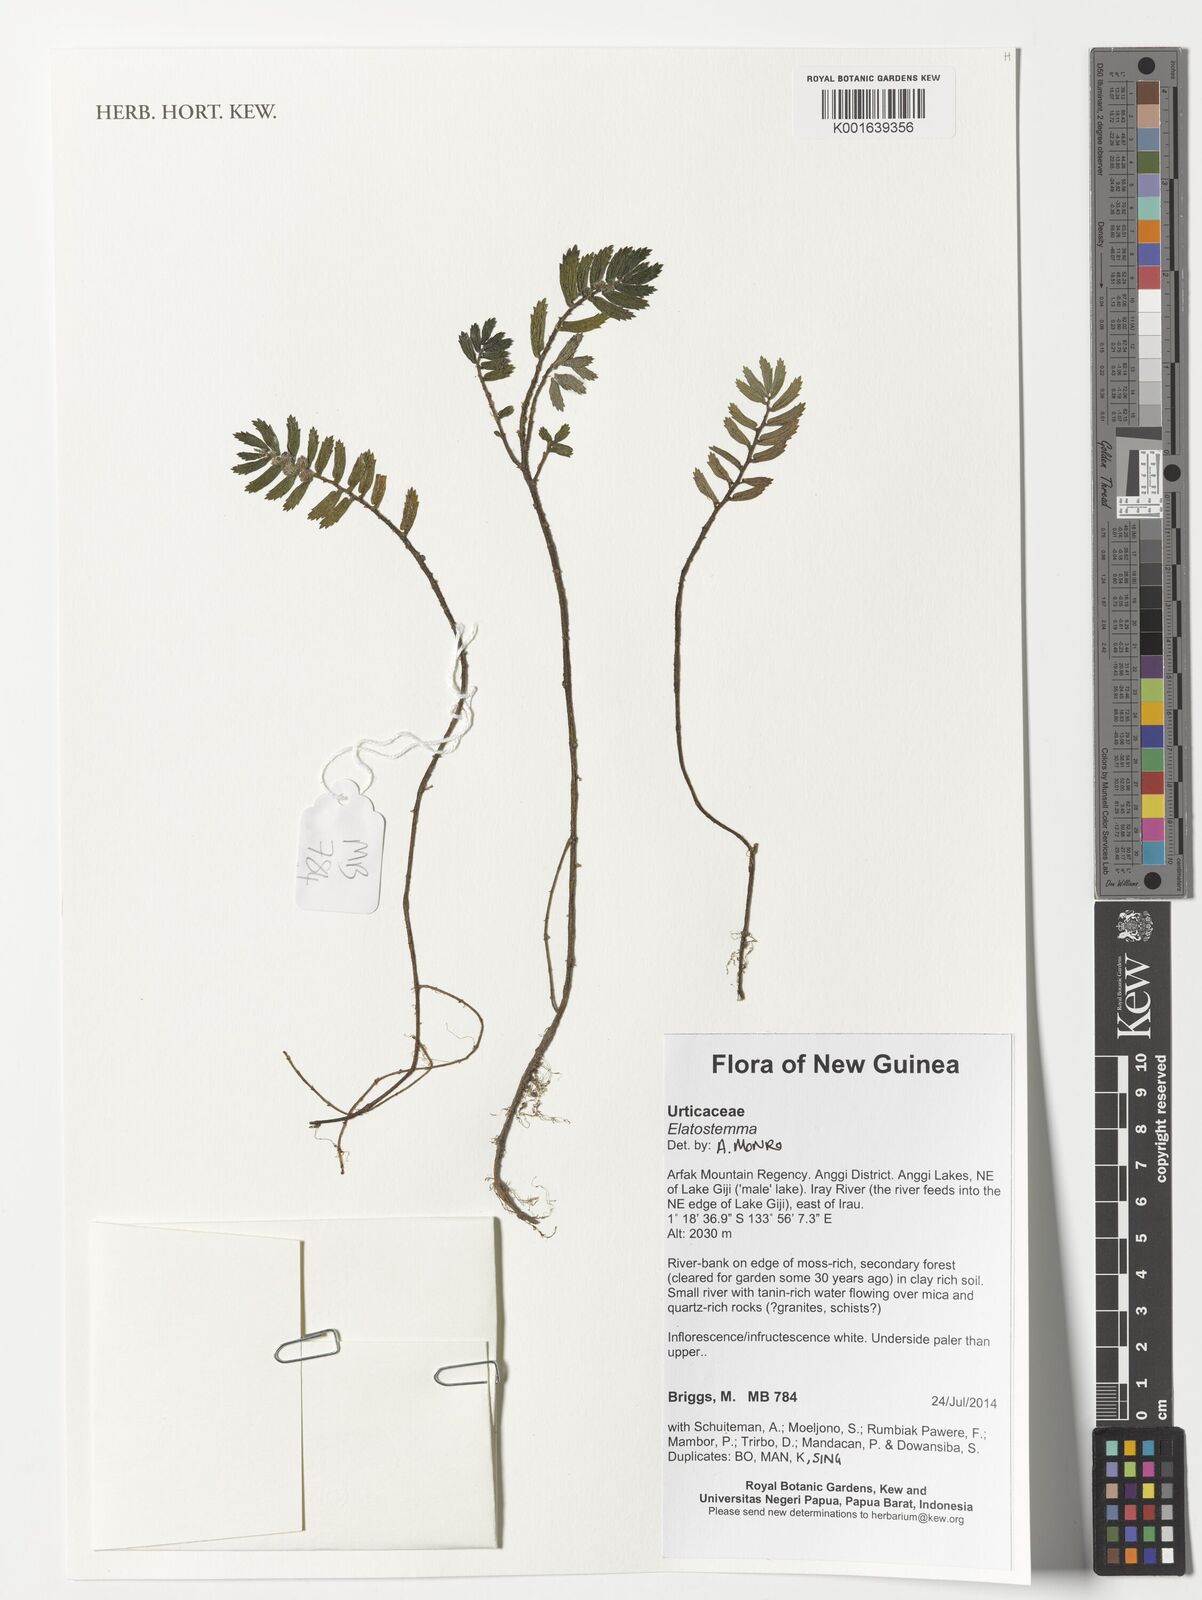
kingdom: Plantae
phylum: Tracheophyta
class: Magnoliopsida
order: Rosales
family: Urticaceae
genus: Elatostema
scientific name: Elatostema
